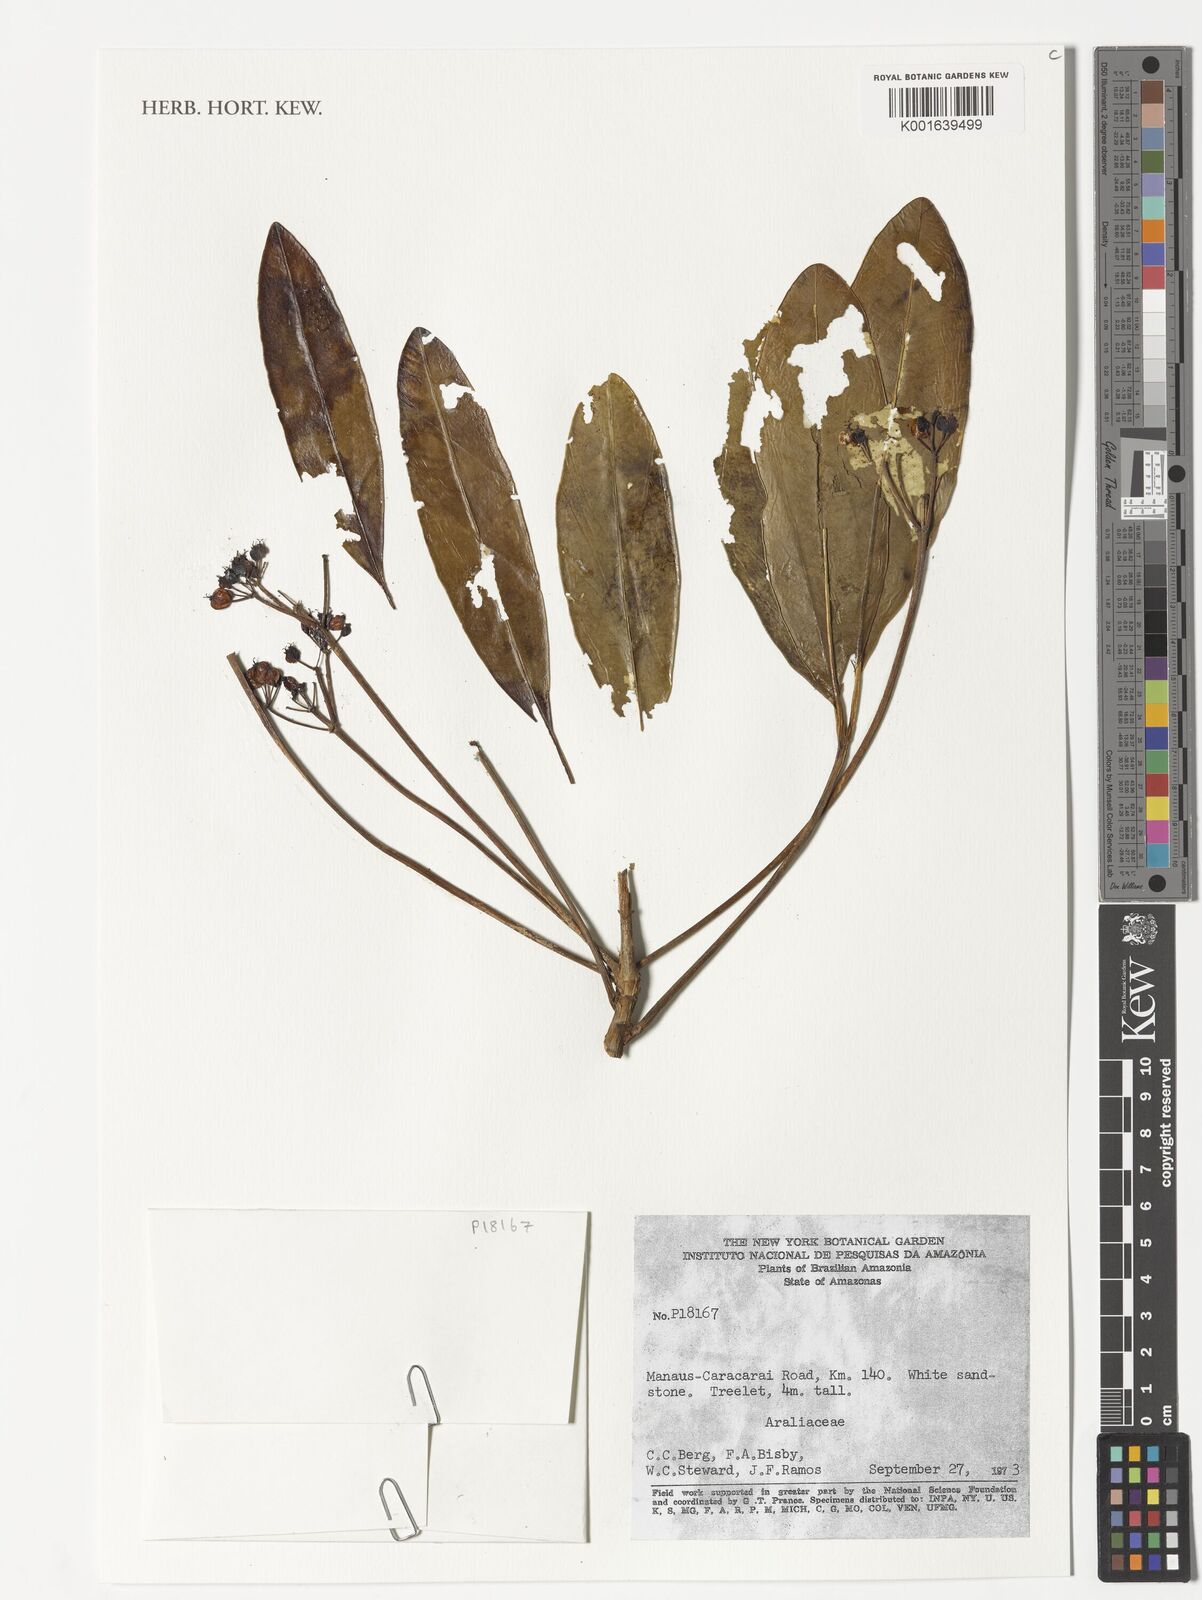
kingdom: Plantae
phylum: Tracheophyta
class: Magnoliopsida
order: Apiales
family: Araliaceae
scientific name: Araliaceae
